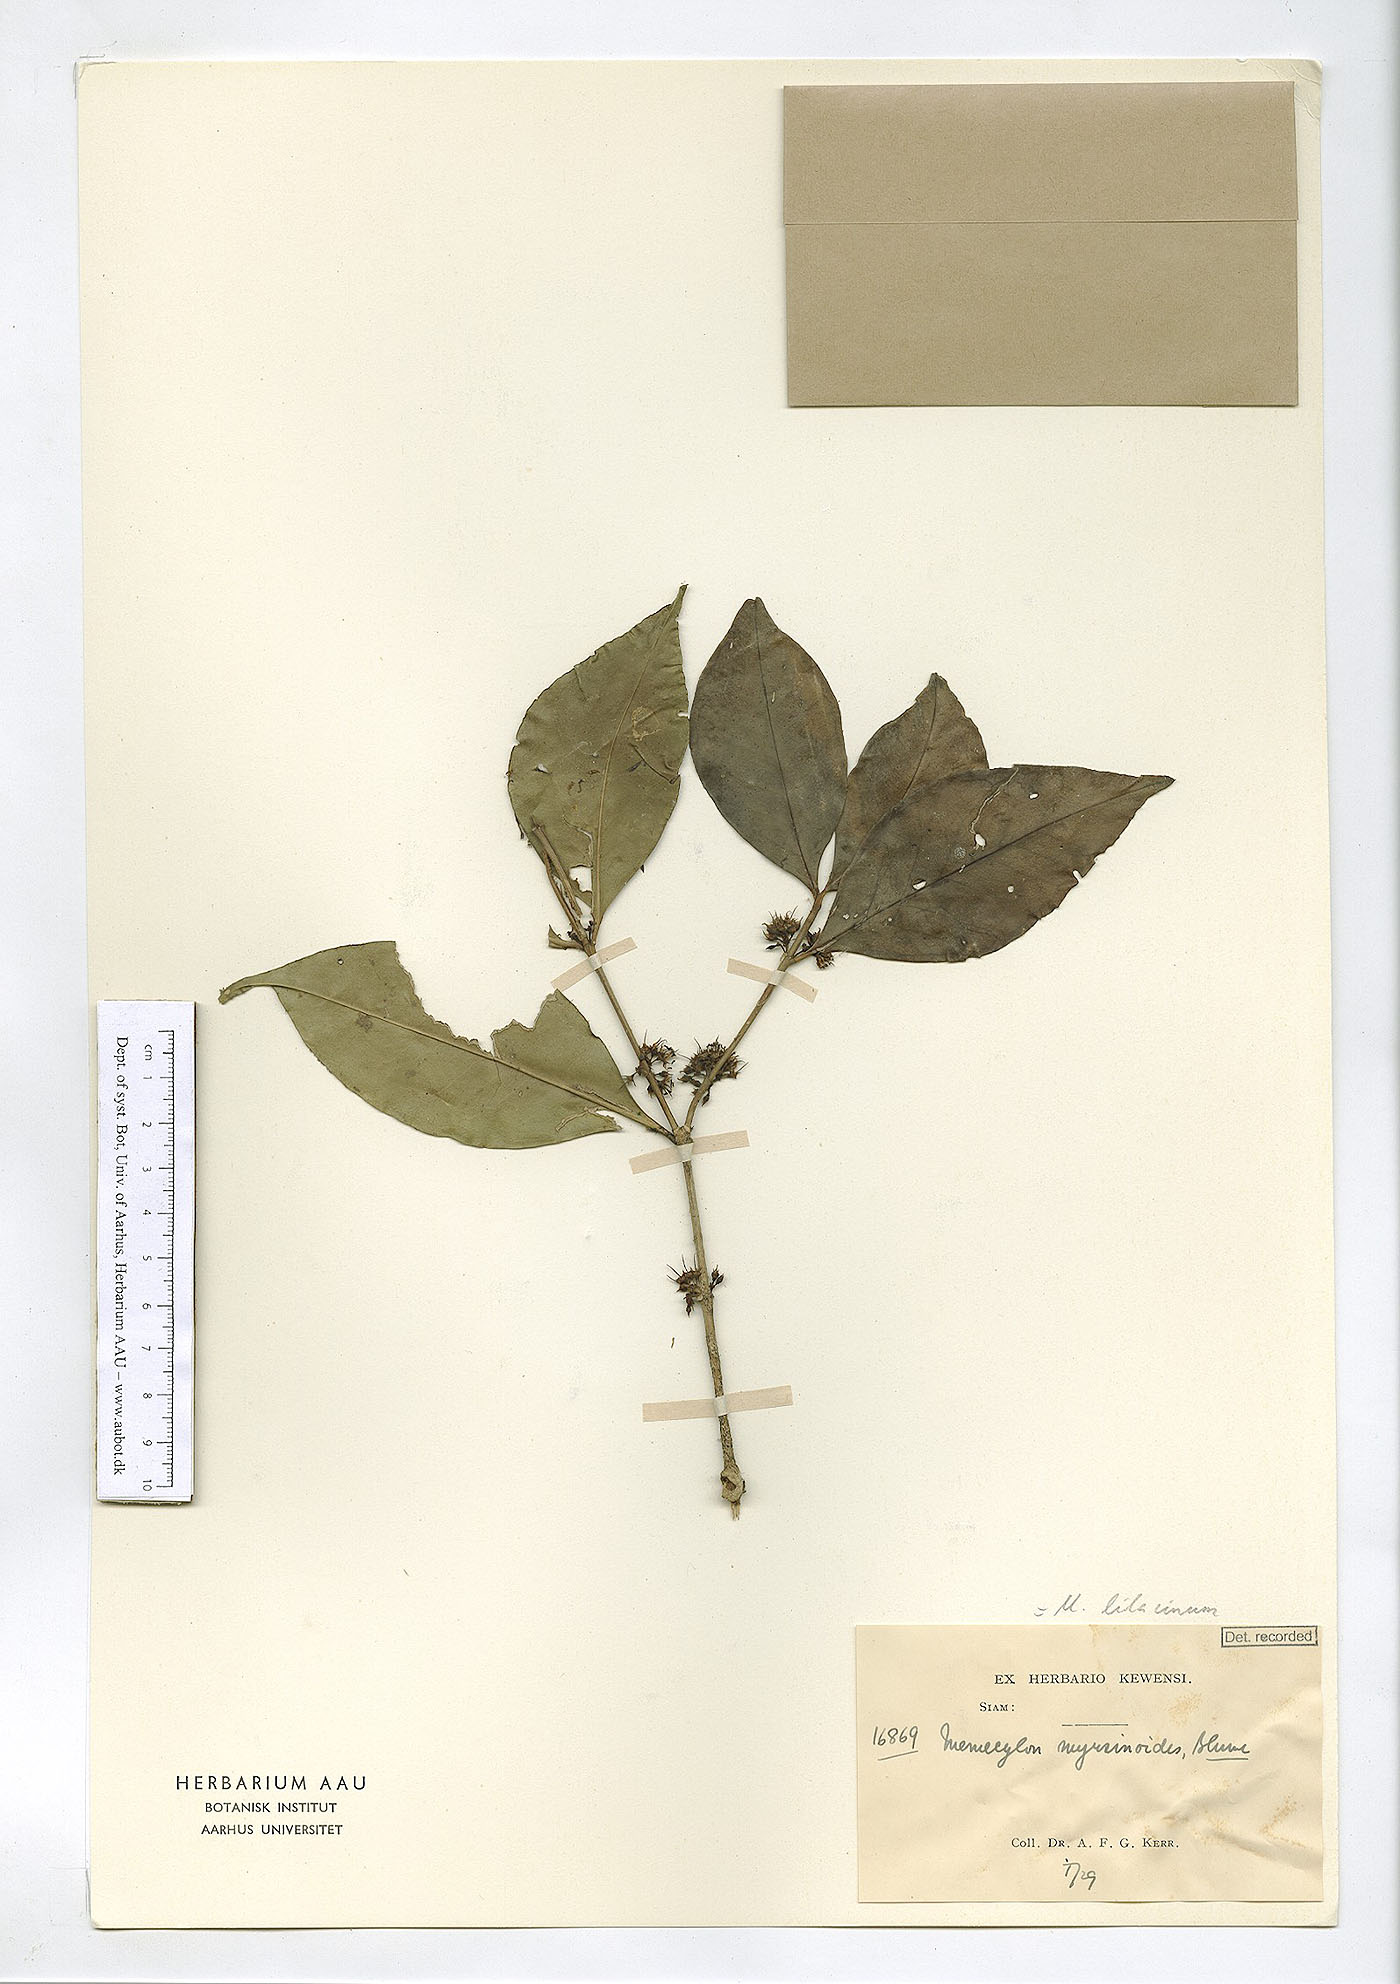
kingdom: Plantae
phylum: Tracheophyta
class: Magnoliopsida
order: Myrtales
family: Melastomataceae
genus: Memecylon
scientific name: Memecylon lilacinum
